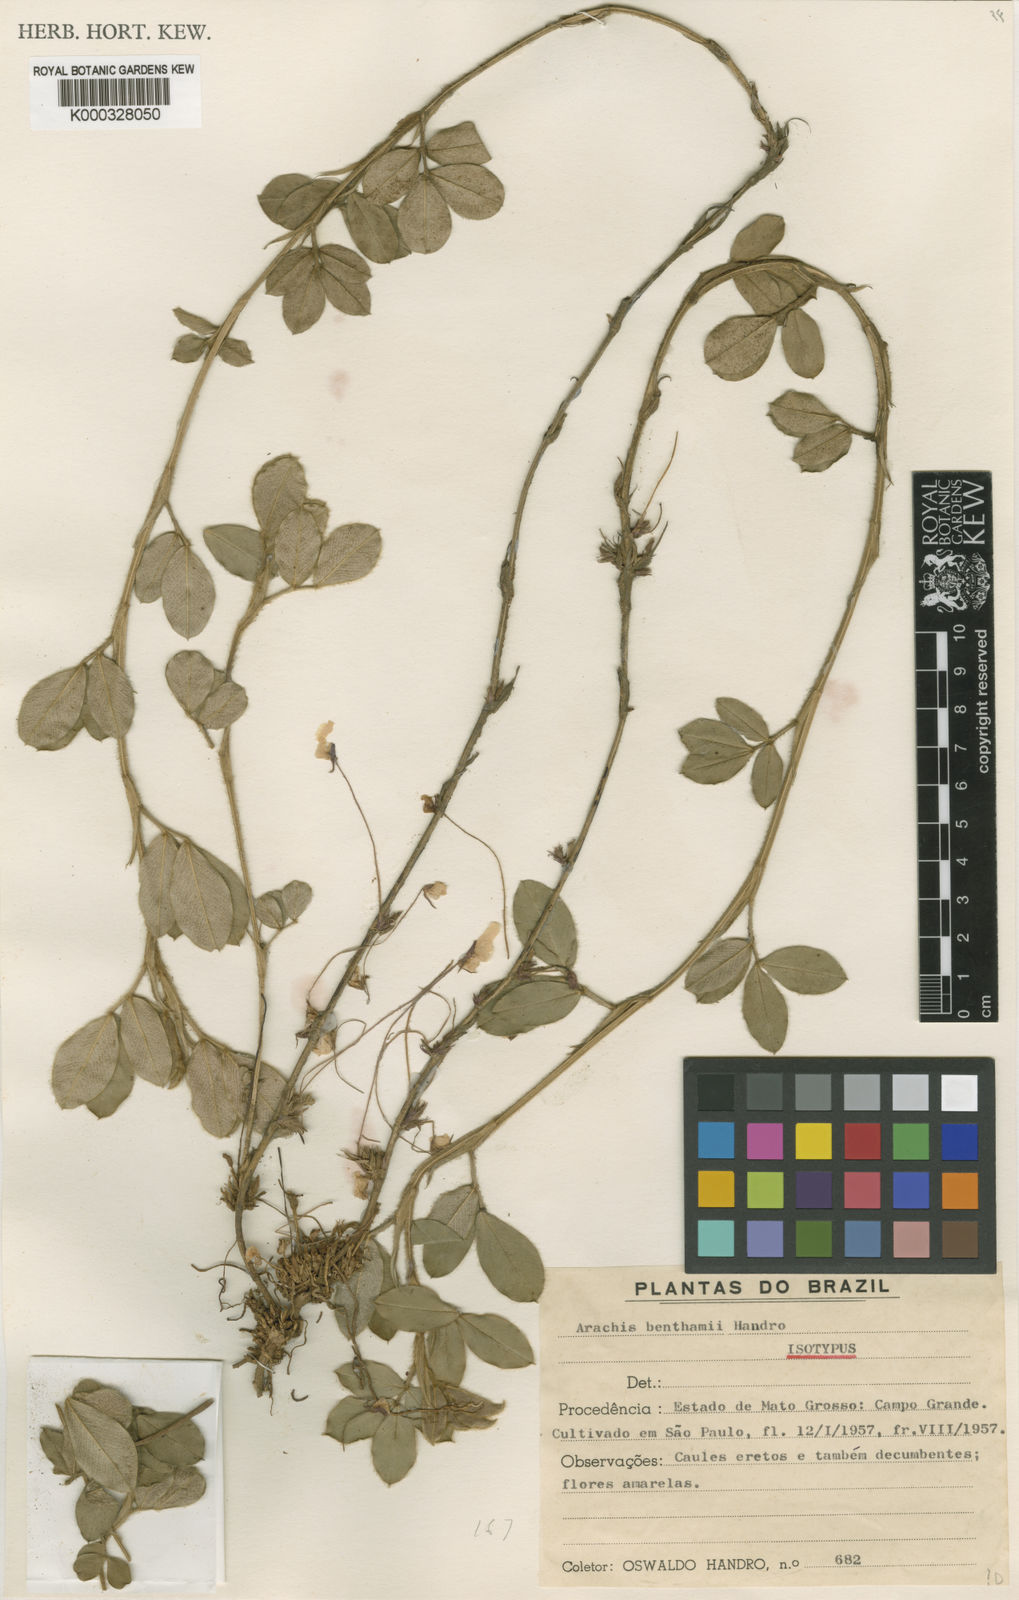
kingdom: Plantae
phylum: Tracheophyta
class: Magnoliopsida
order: Fabales
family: Fabaceae
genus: Arachis
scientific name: Arachis benthamii
